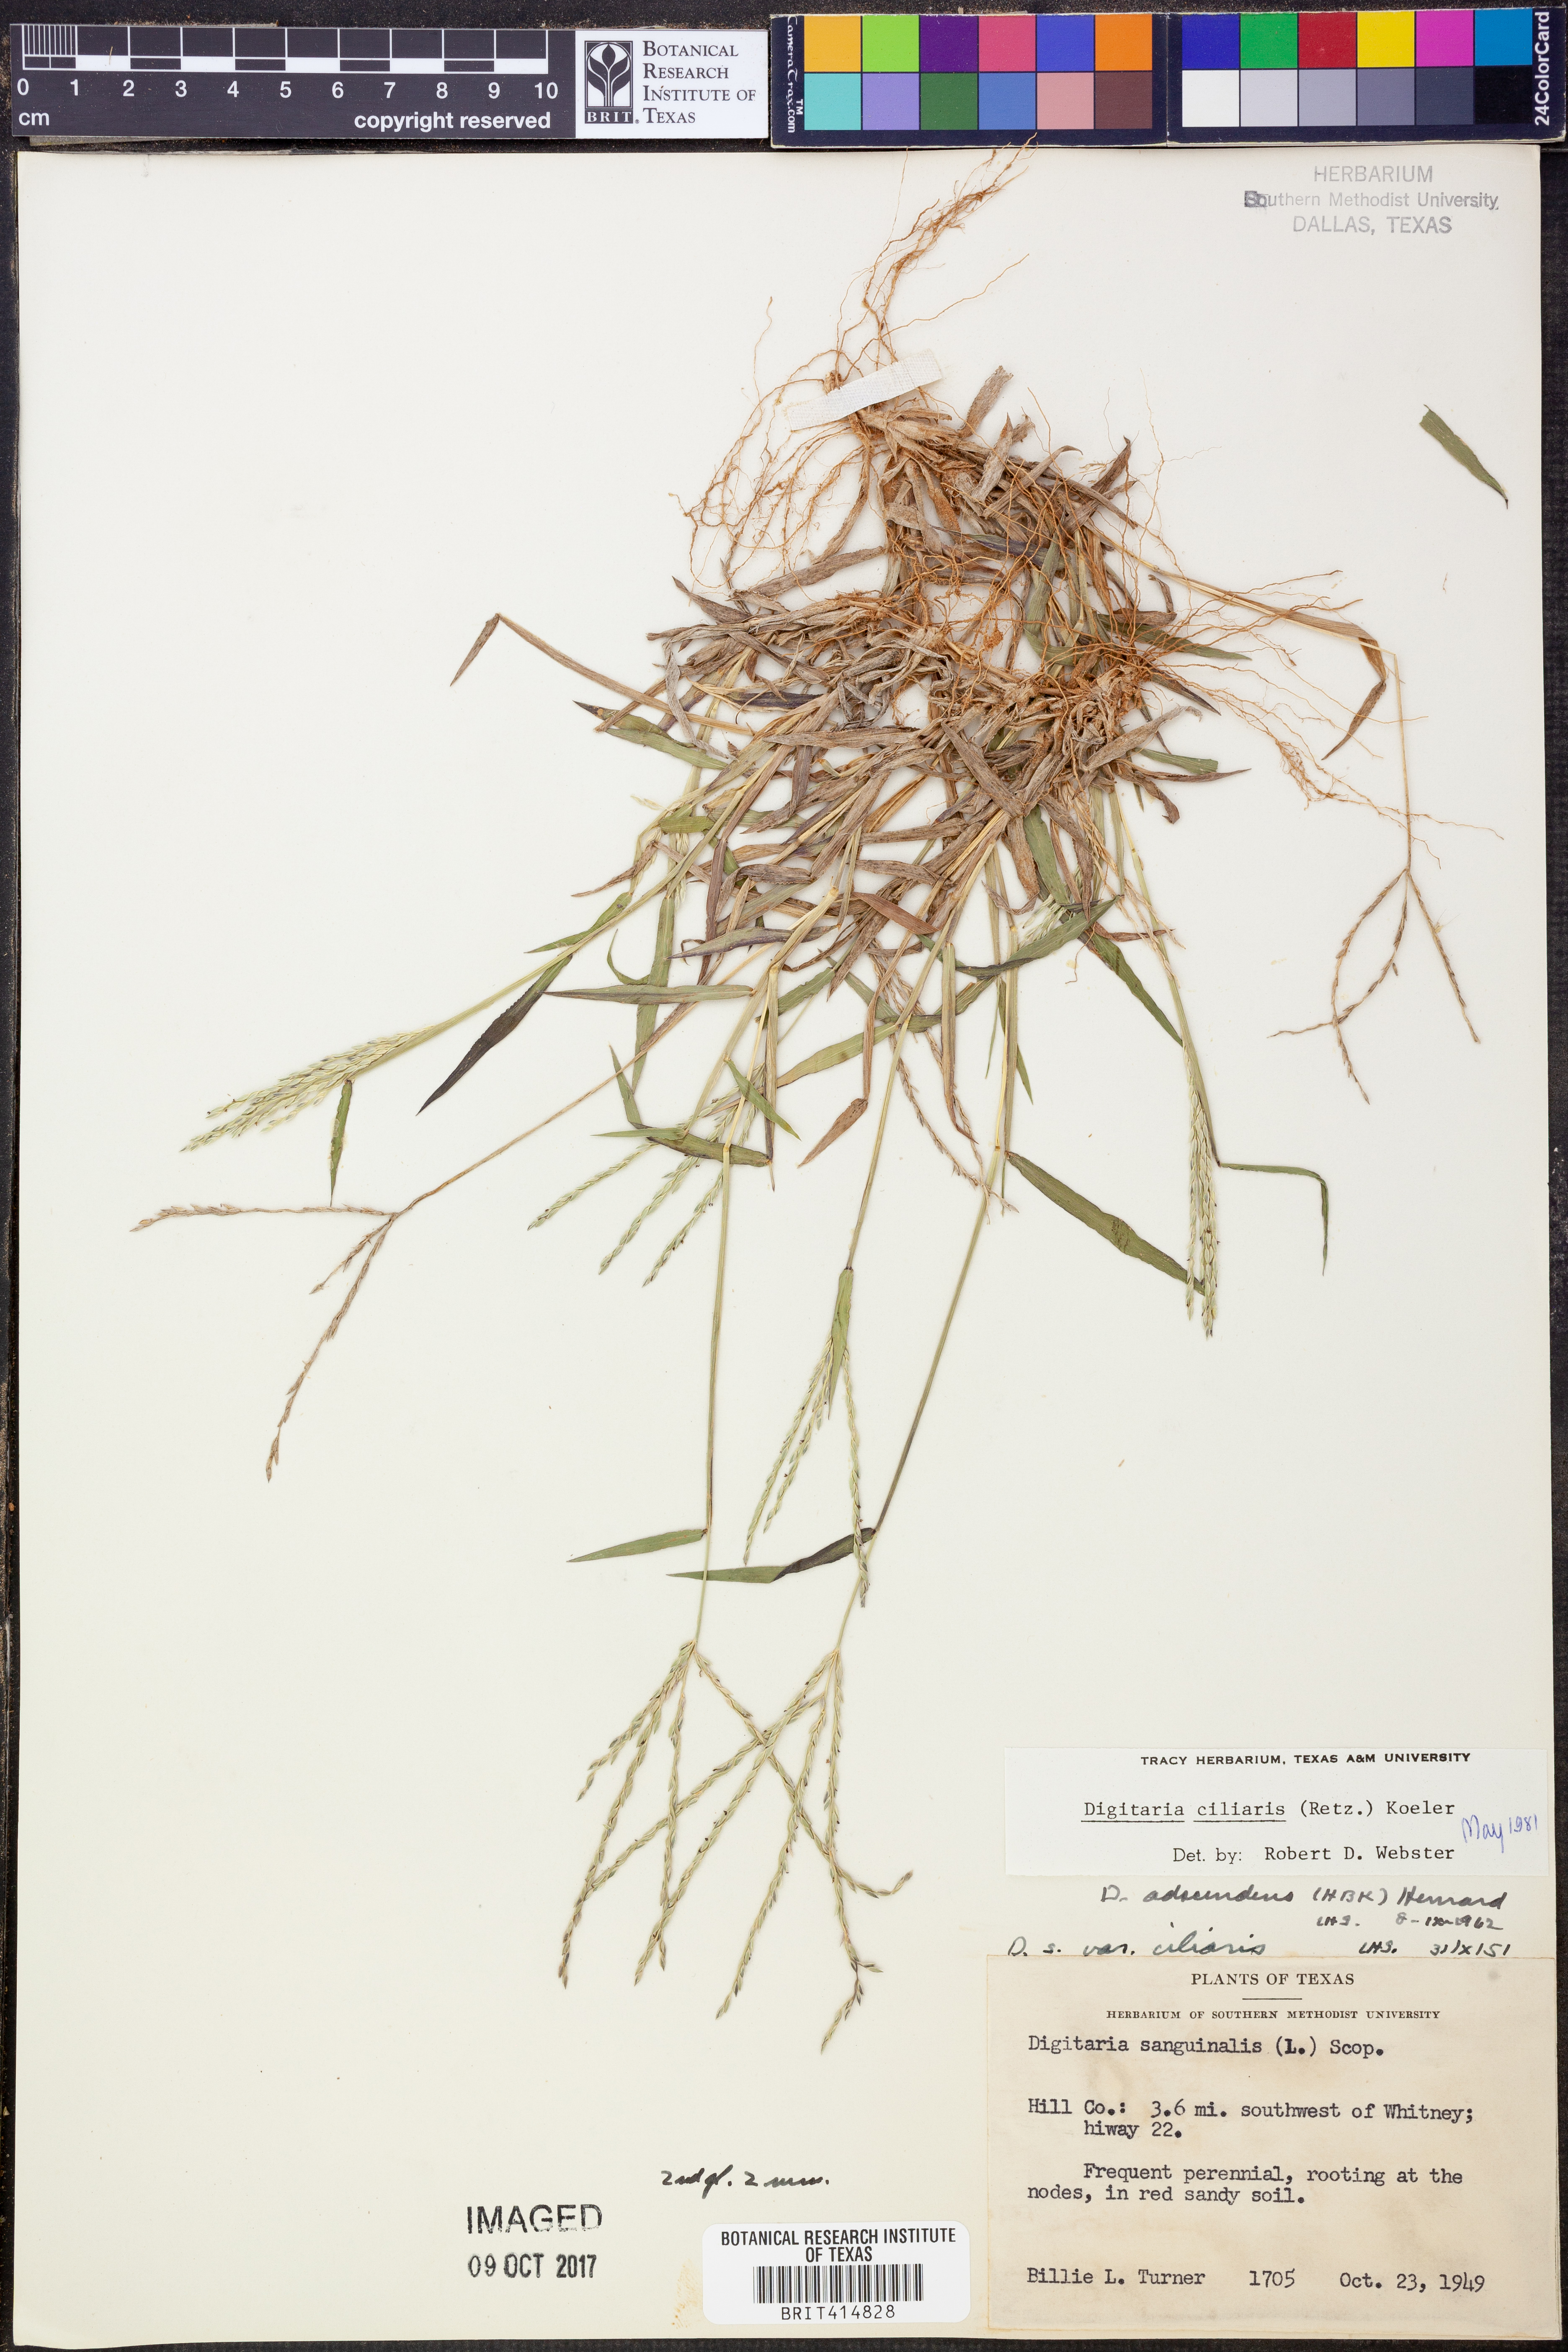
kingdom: Plantae
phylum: Tracheophyta
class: Liliopsida
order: Poales
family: Poaceae
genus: Digitaria
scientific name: Digitaria ciliaris
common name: Tropical finger-grass
